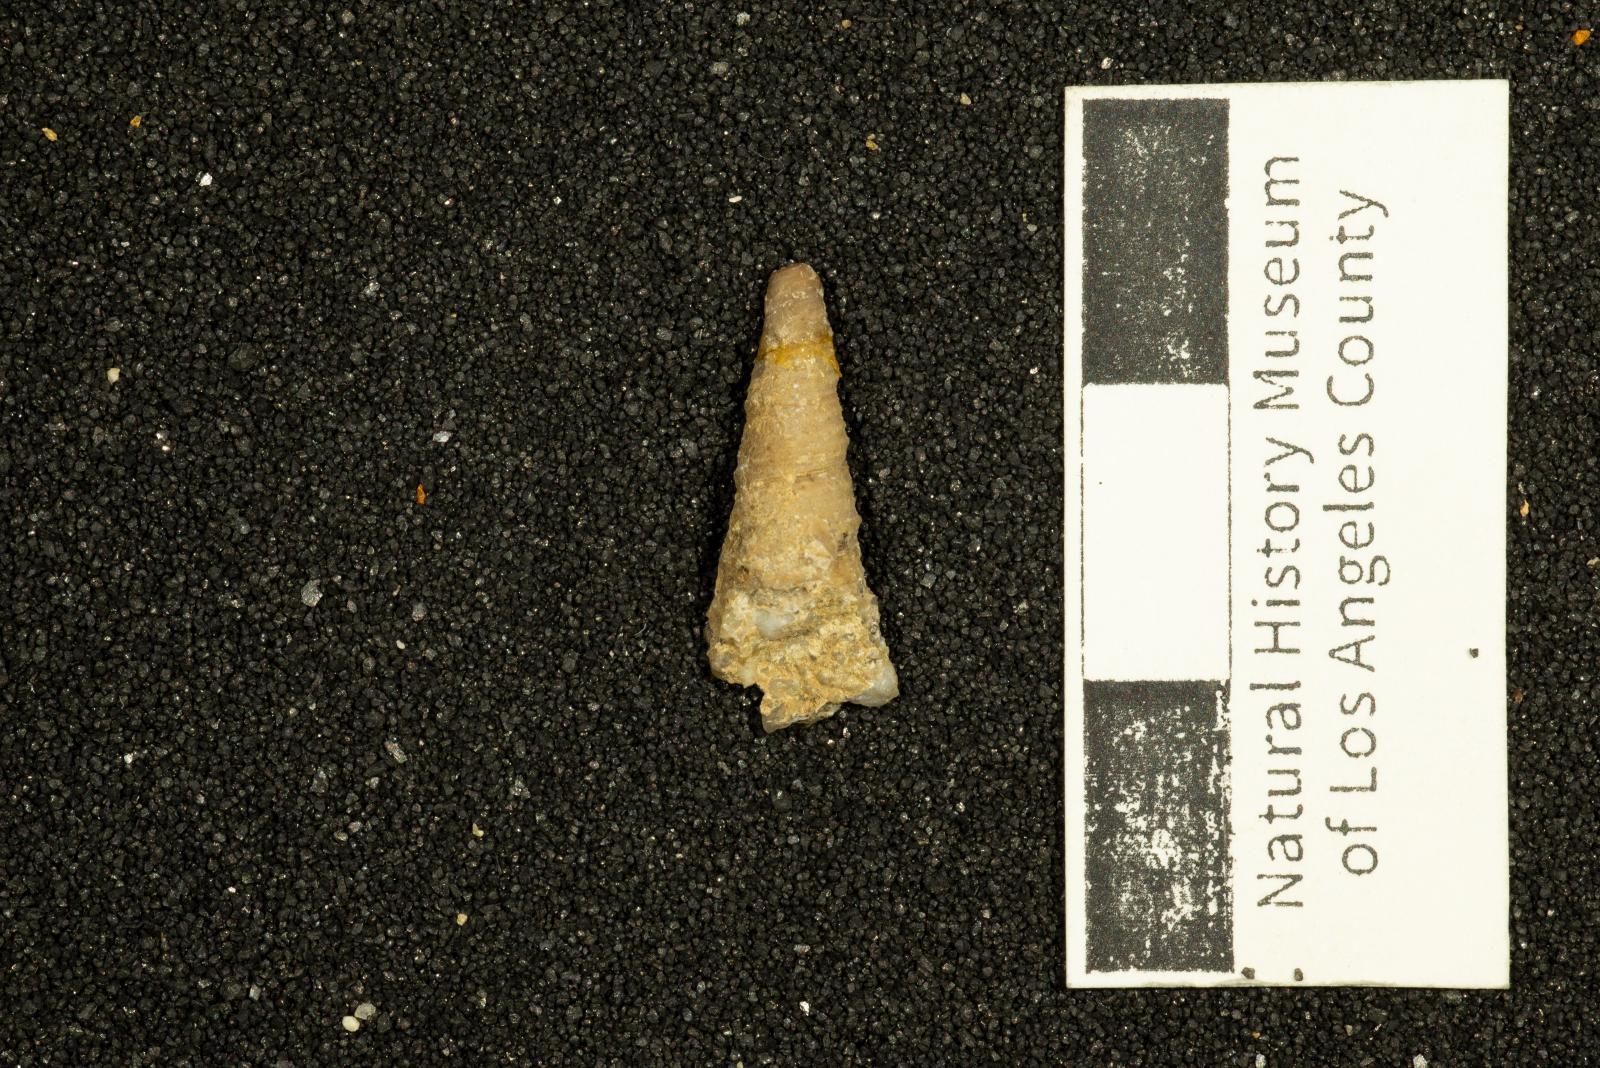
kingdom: Animalia
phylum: Mollusca
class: Gastropoda
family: Turritellidae
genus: Turritella
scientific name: Turritella iota
